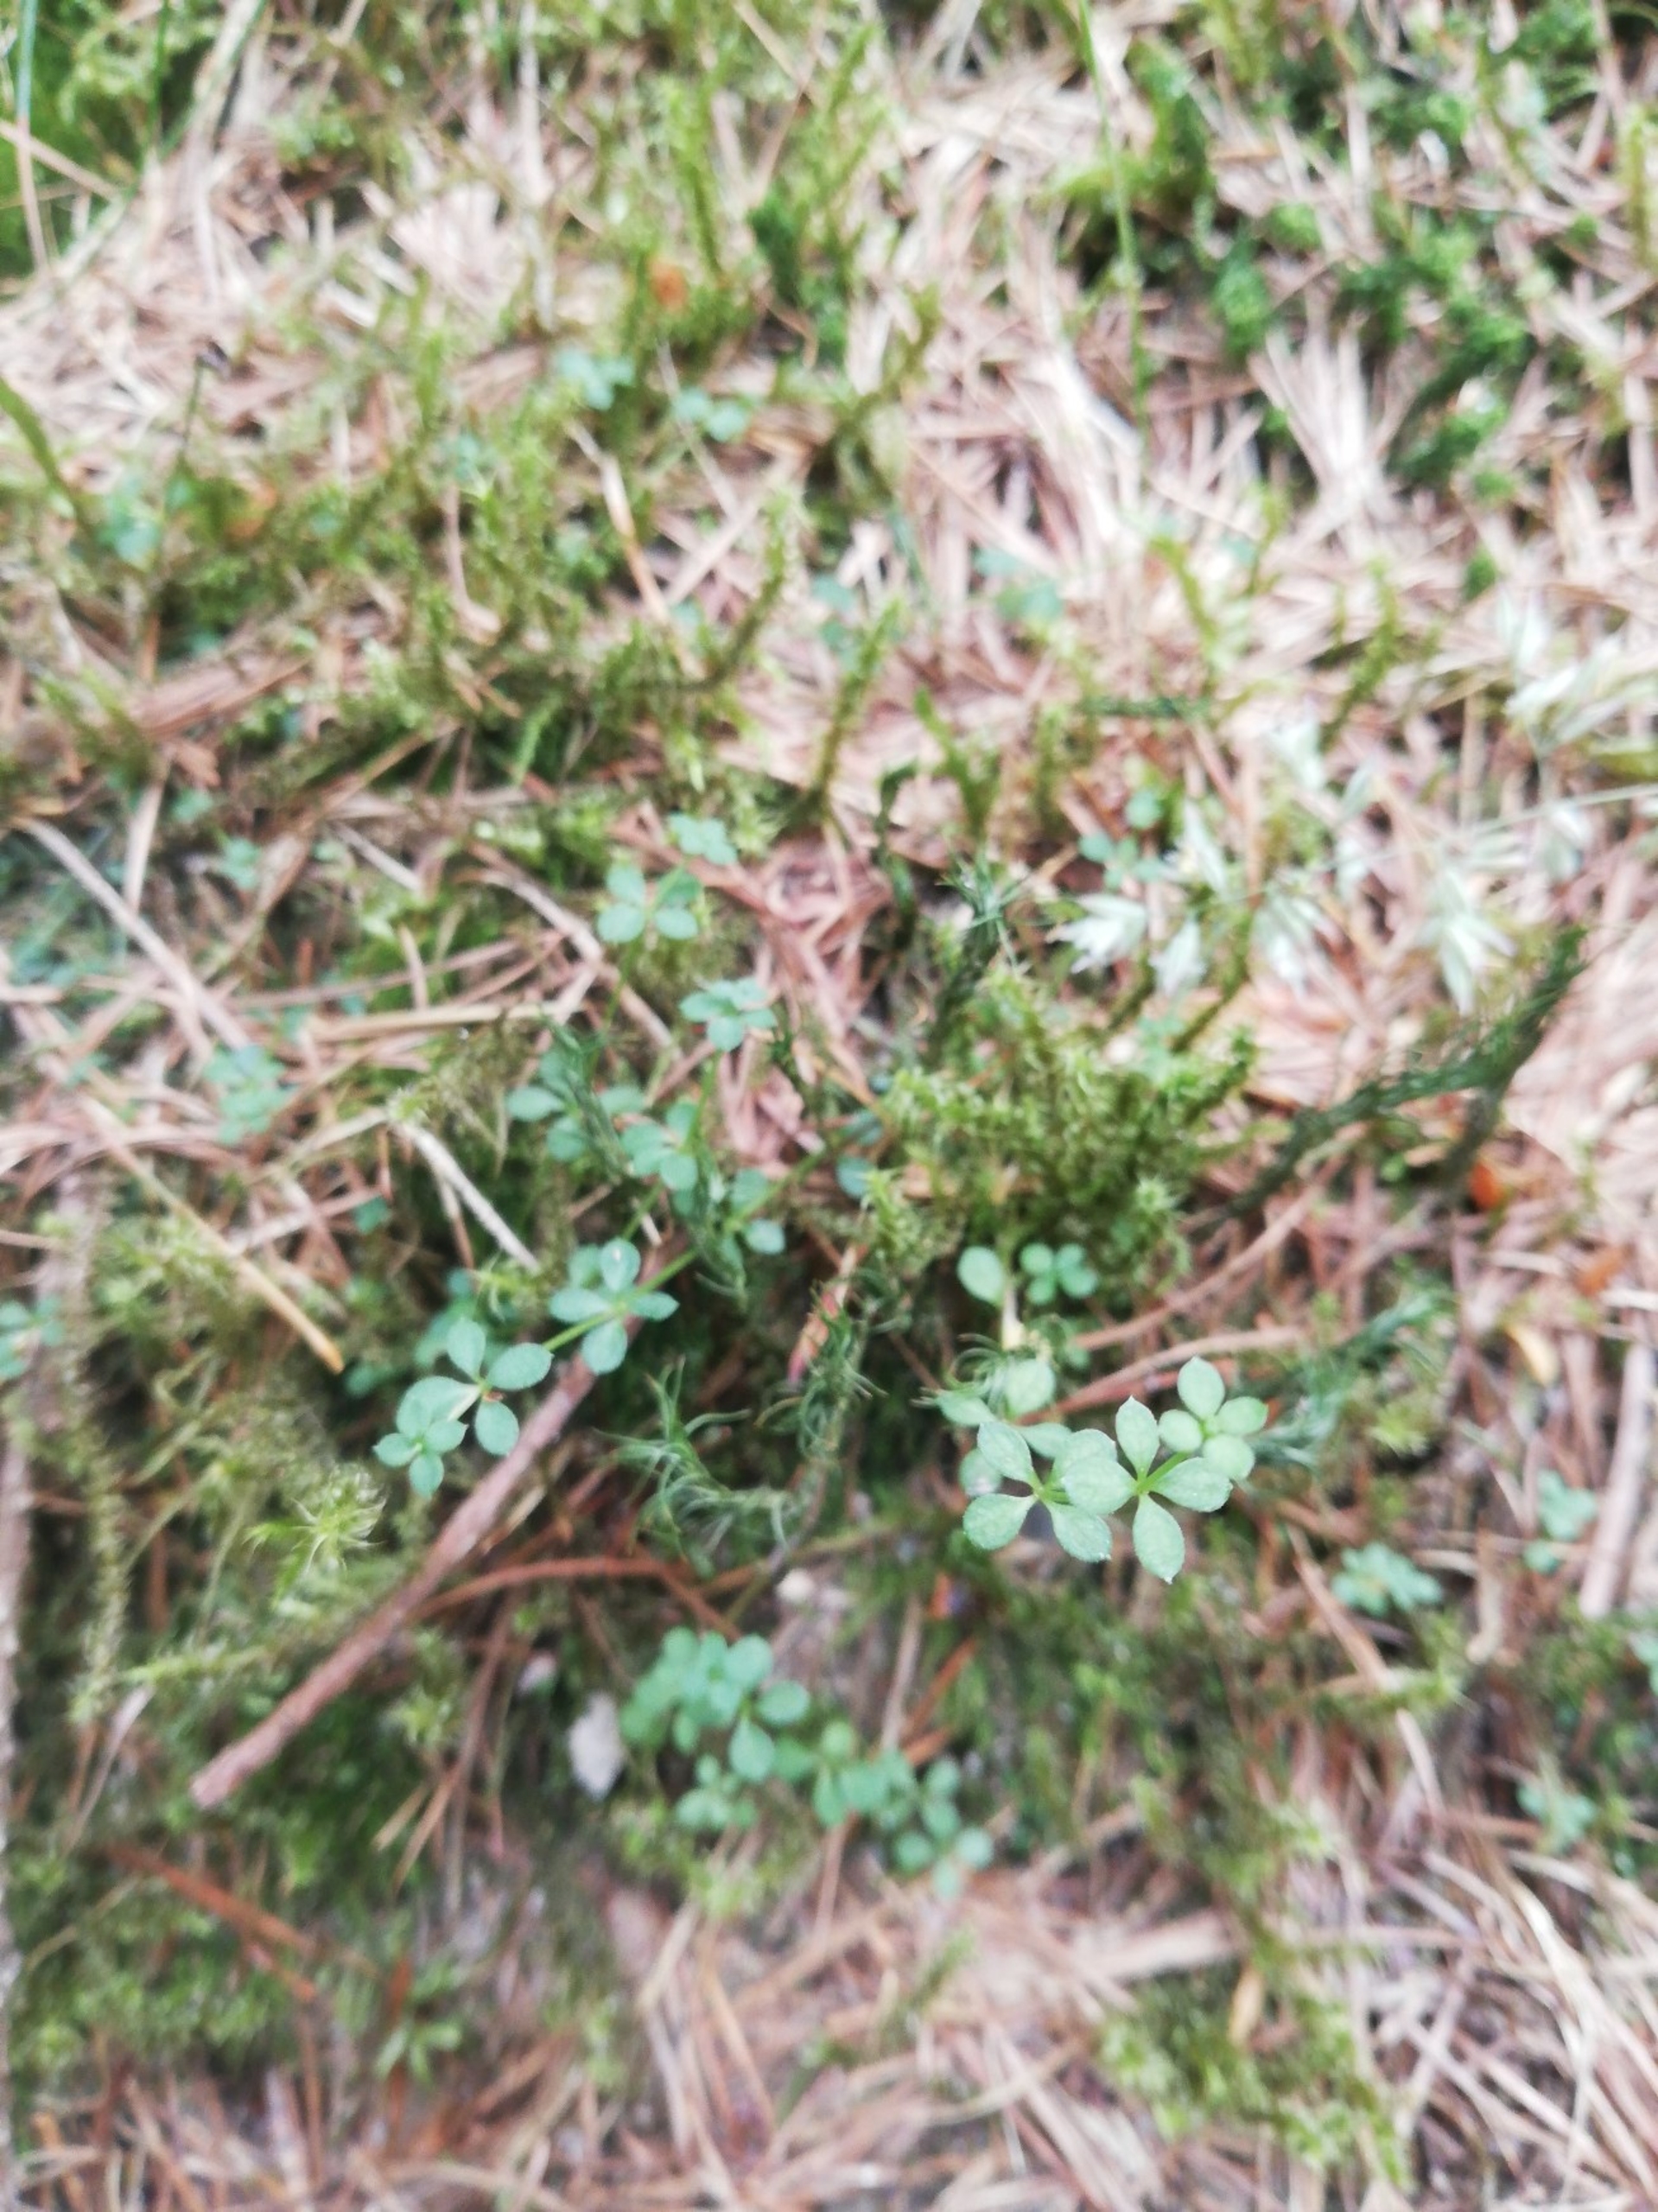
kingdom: Plantae
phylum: Tracheophyta
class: Magnoliopsida
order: Gentianales
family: Rubiaceae
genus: Galium
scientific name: Galium saxatile
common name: Lyng-snerre
